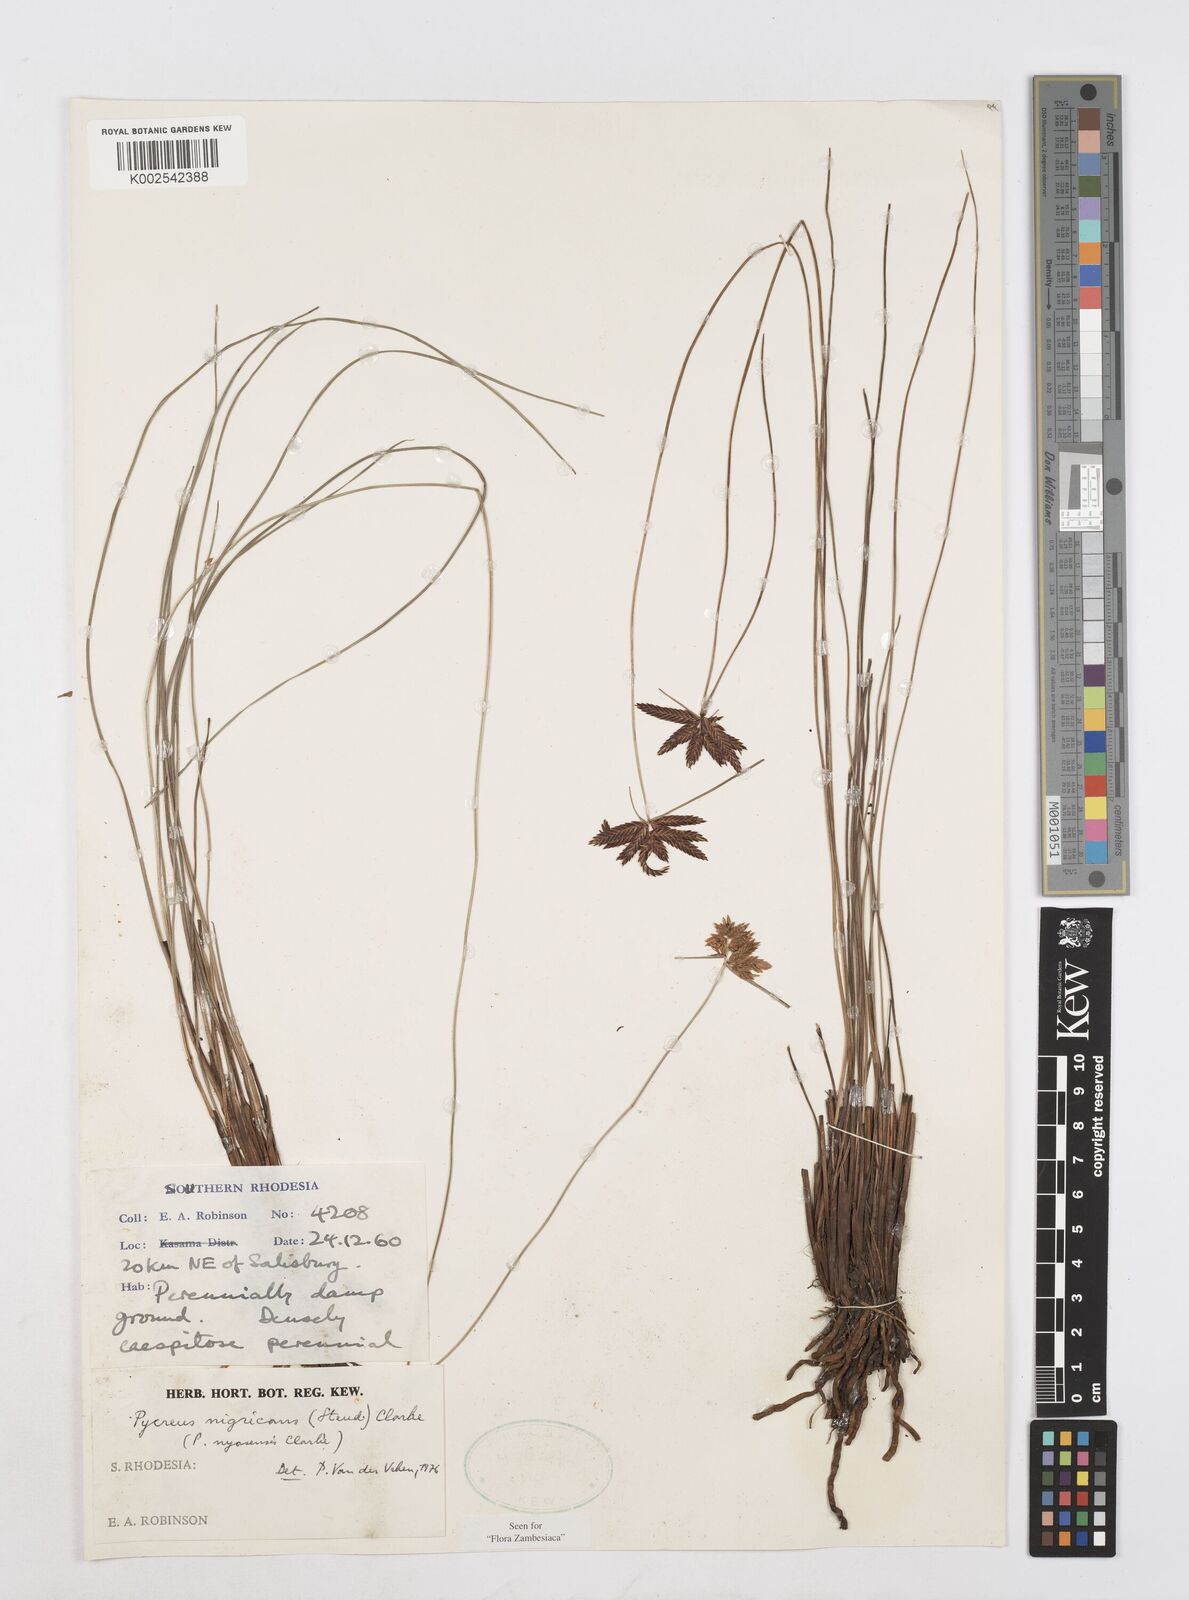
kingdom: Plantae
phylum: Tracheophyta
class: Liliopsida
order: Poales
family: Cyperaceae
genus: Cyperus
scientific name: Cyperus nigricans
